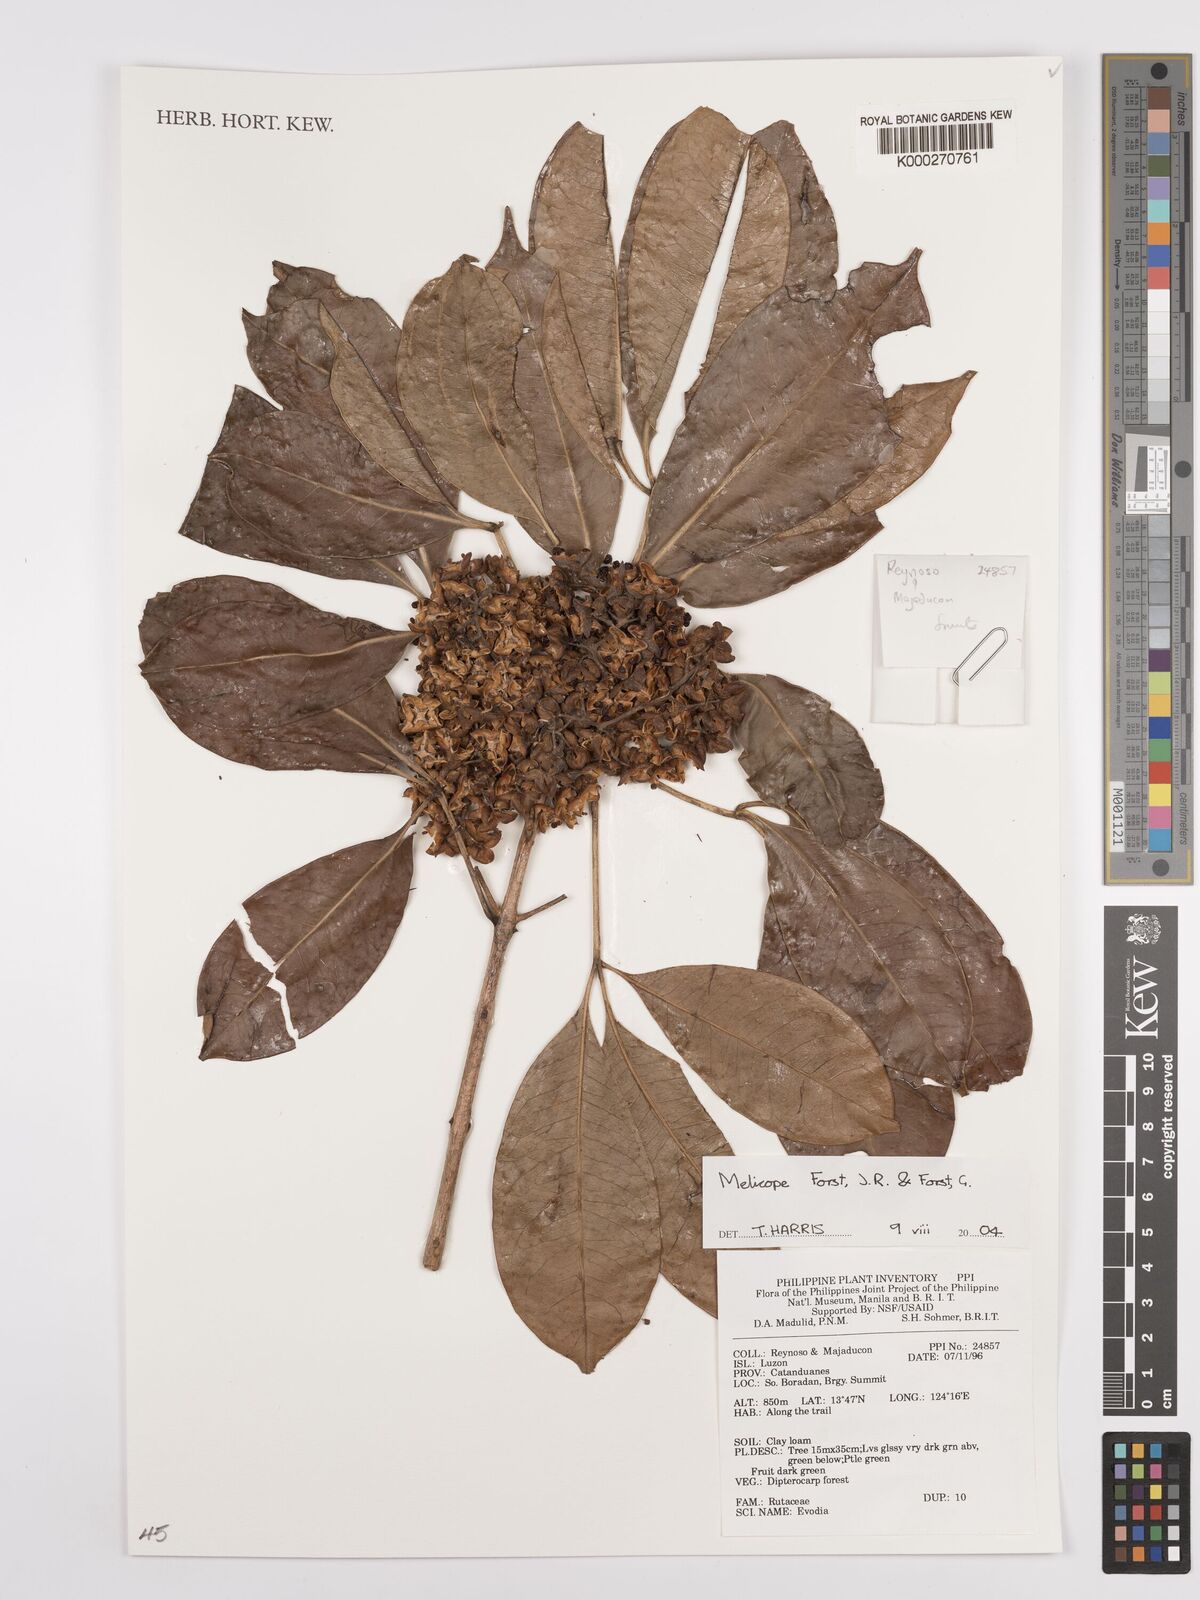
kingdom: Plantae
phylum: Tracheophyta
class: Magnoliopsida
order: Sapindales
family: Rutaceae
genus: Melicope
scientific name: Melicope
